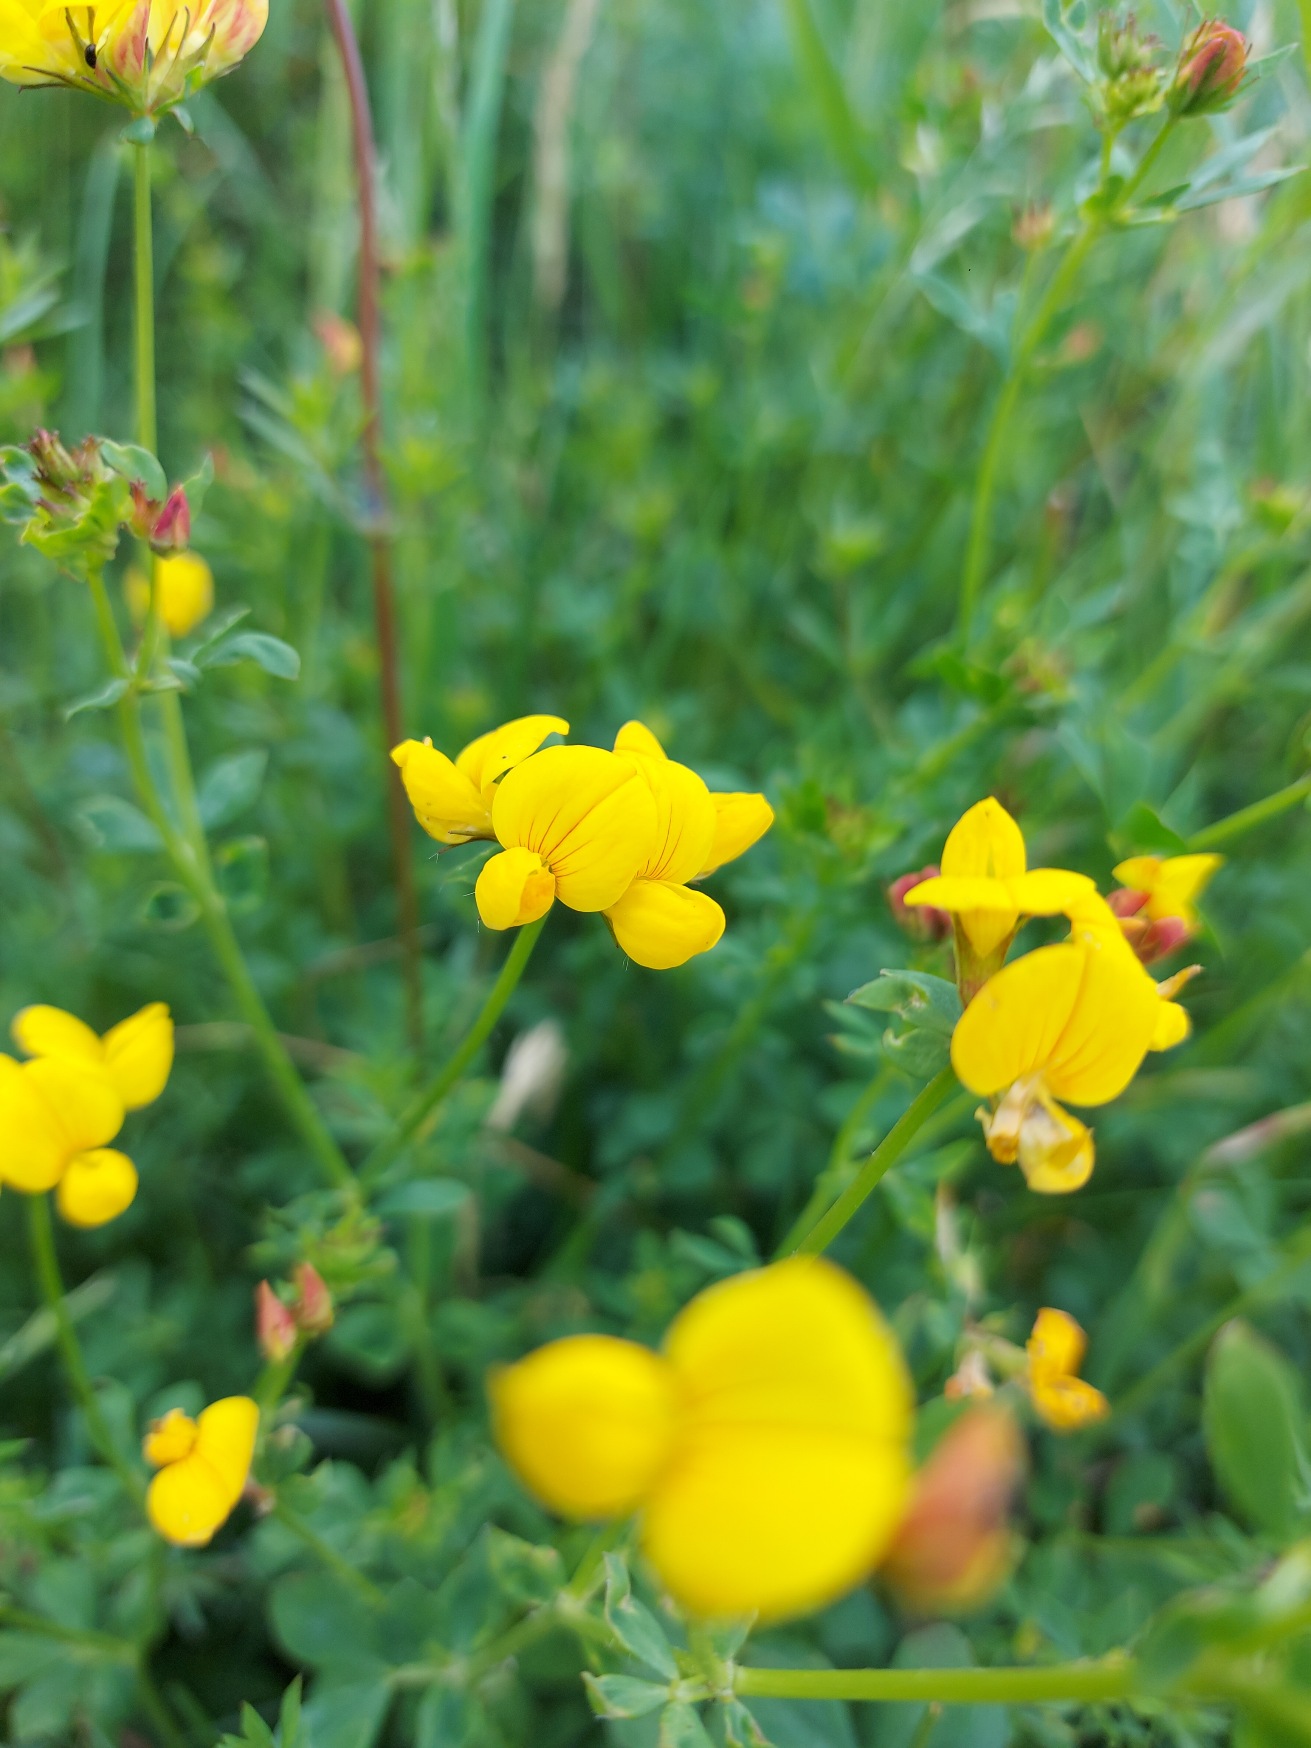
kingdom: Plantae
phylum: Tracheophyta
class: Magnoliopsida
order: Fabales
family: Fabaceae
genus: Lotus
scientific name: Lotus corniculatus
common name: Almindelig kællingetand
